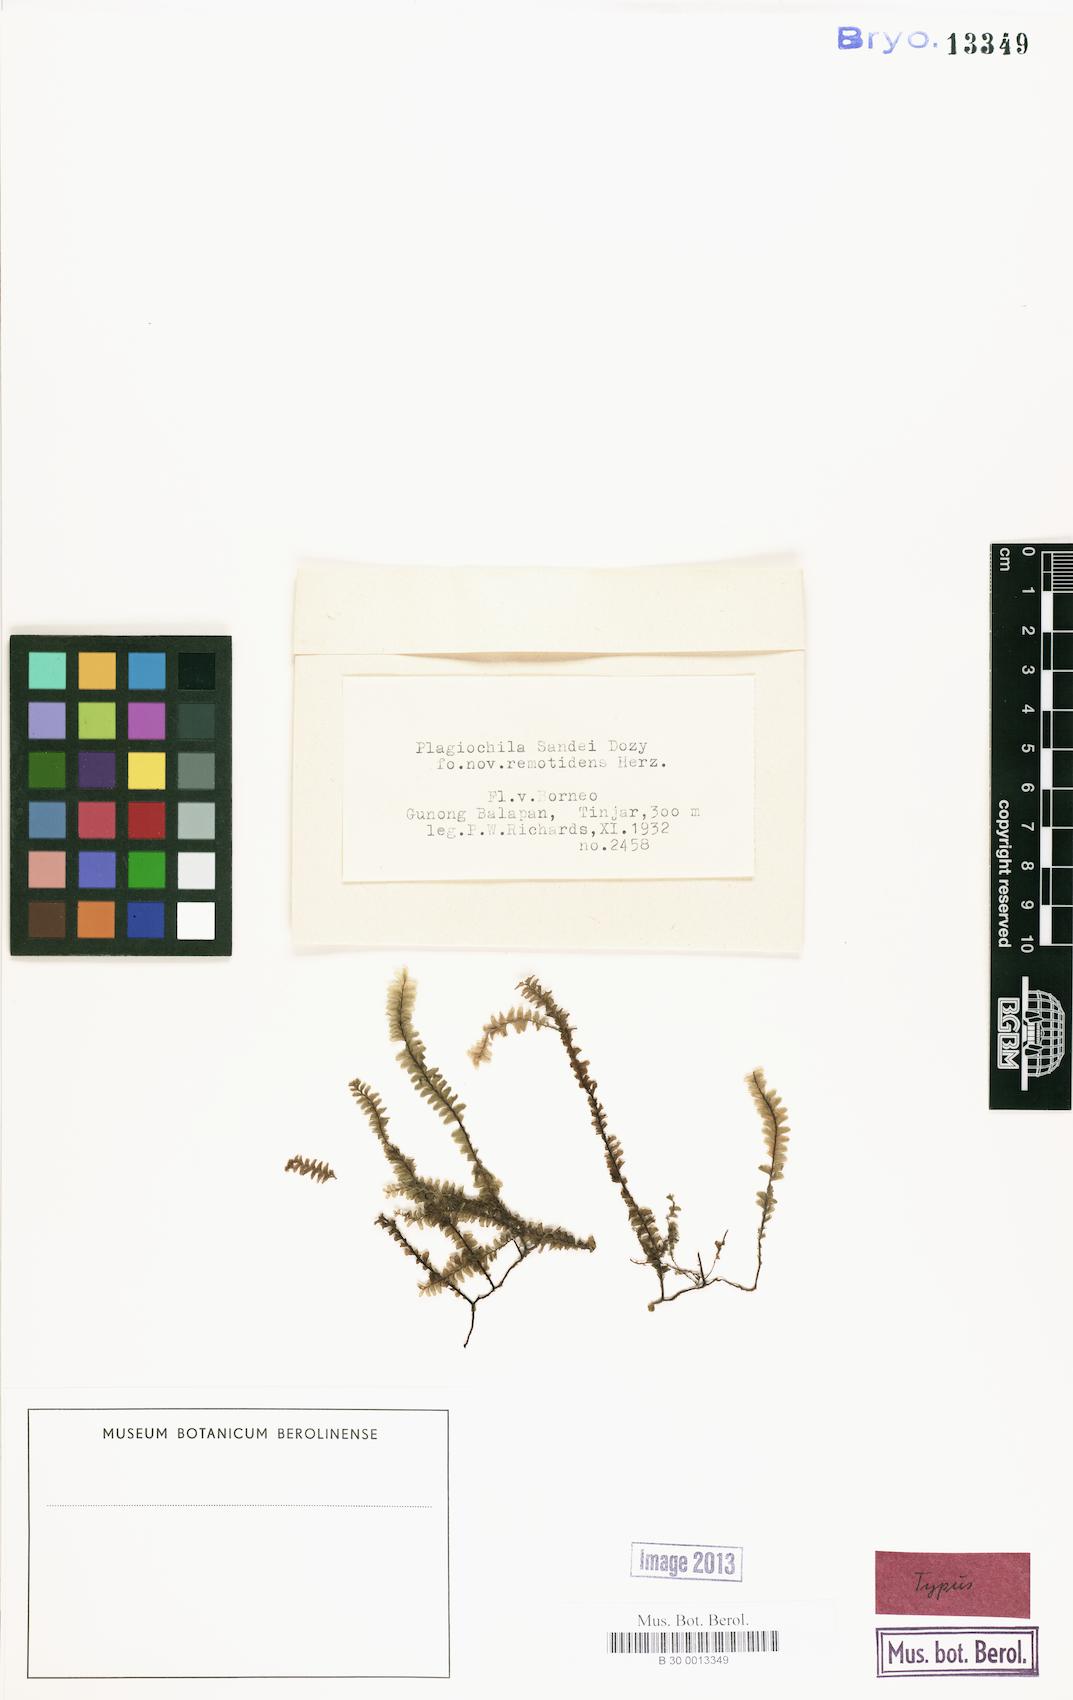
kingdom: Plantae
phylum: Marchantiophyta
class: Jungermanniopsida
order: Jungermanniales
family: Plagiochilaceae
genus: Plagiochila
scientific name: Plagiochila sandei
